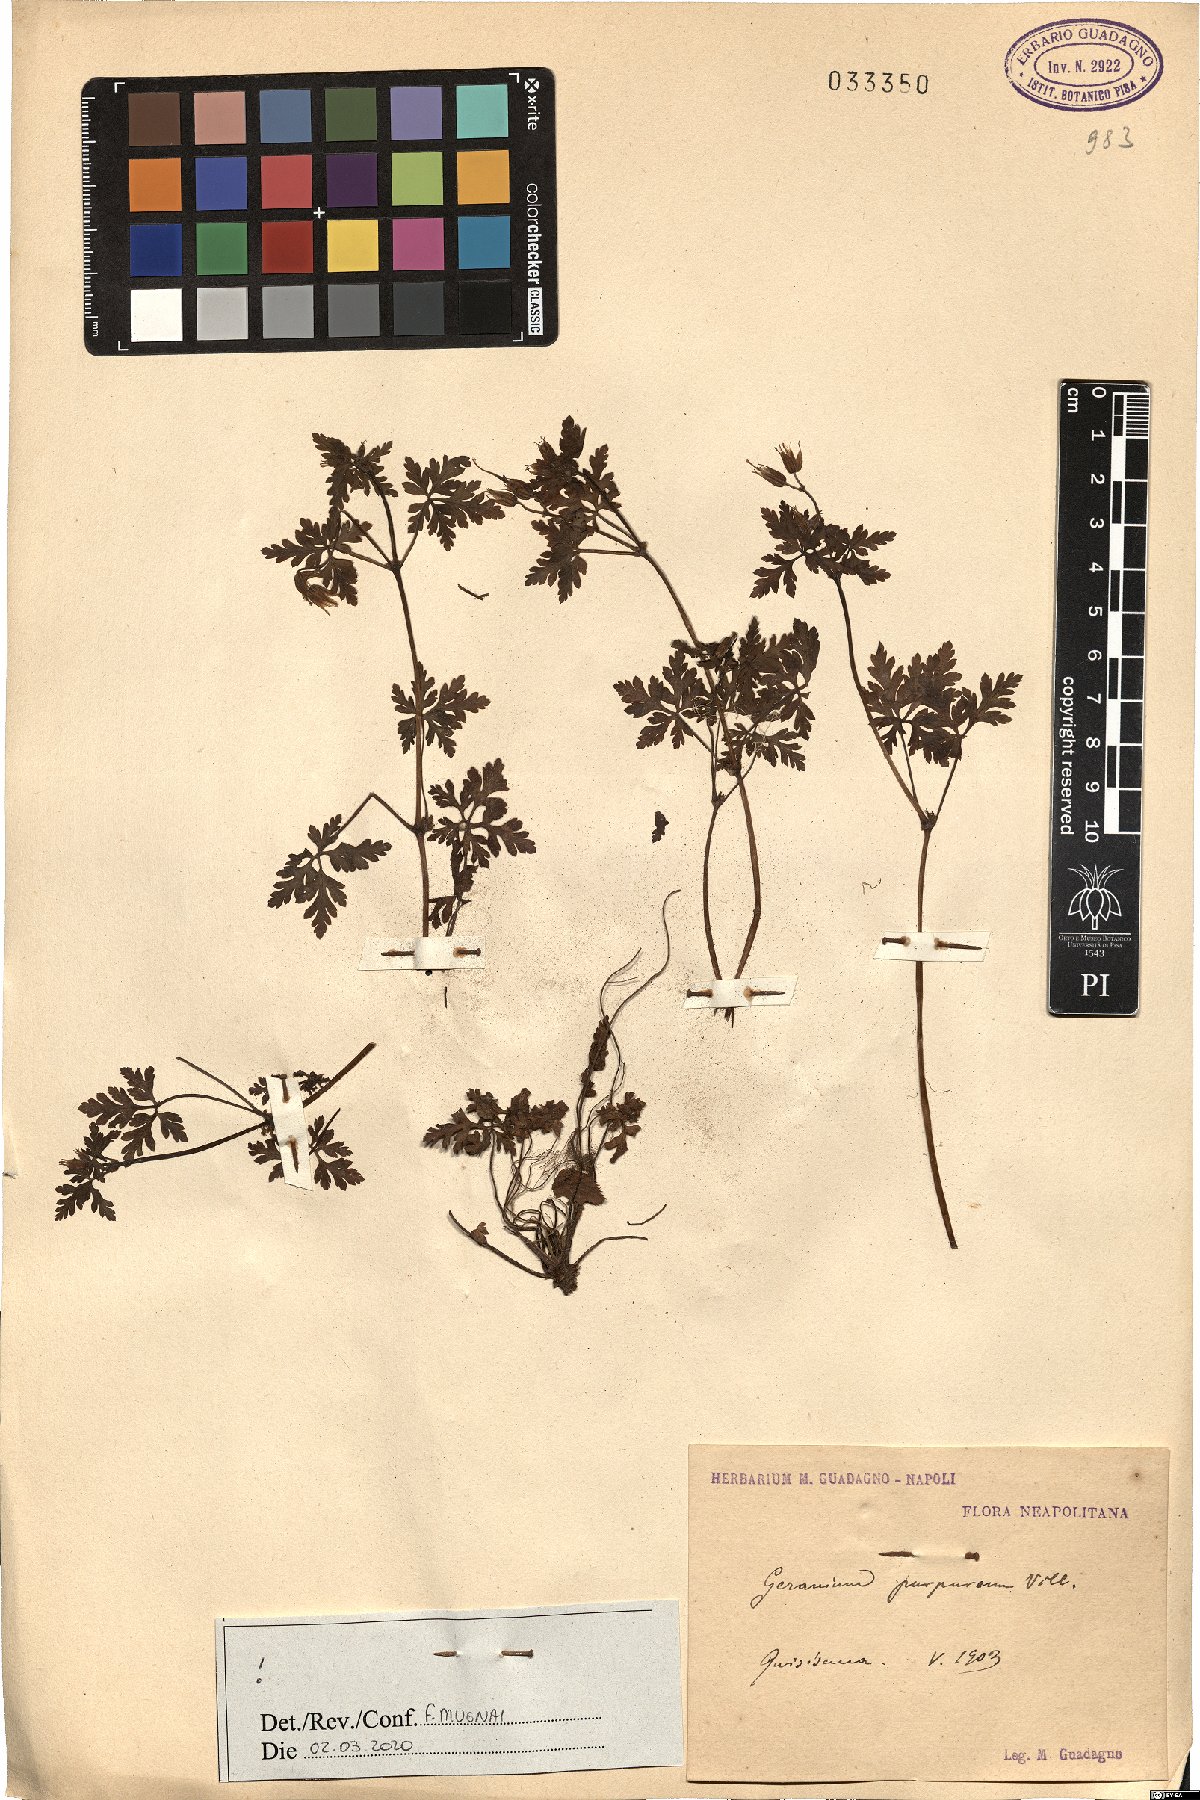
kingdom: Plantae
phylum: Tracheophyta
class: Magnoliopsida
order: Geraniales
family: Geraniaceae
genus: Geranium
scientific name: Geranium purpureum
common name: Little-robin
